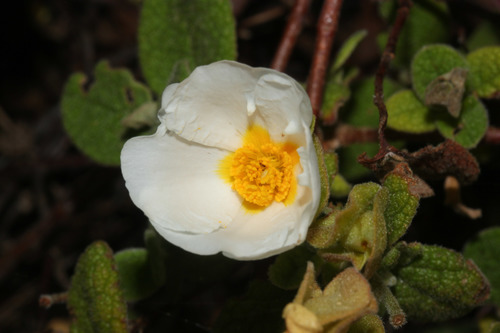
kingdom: Plantae
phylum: Tracheophyta
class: Magnoliopsida
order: Malvales
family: Cistaceae
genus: Cistus
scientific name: Cistus salviifolius
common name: Salvia cistus
